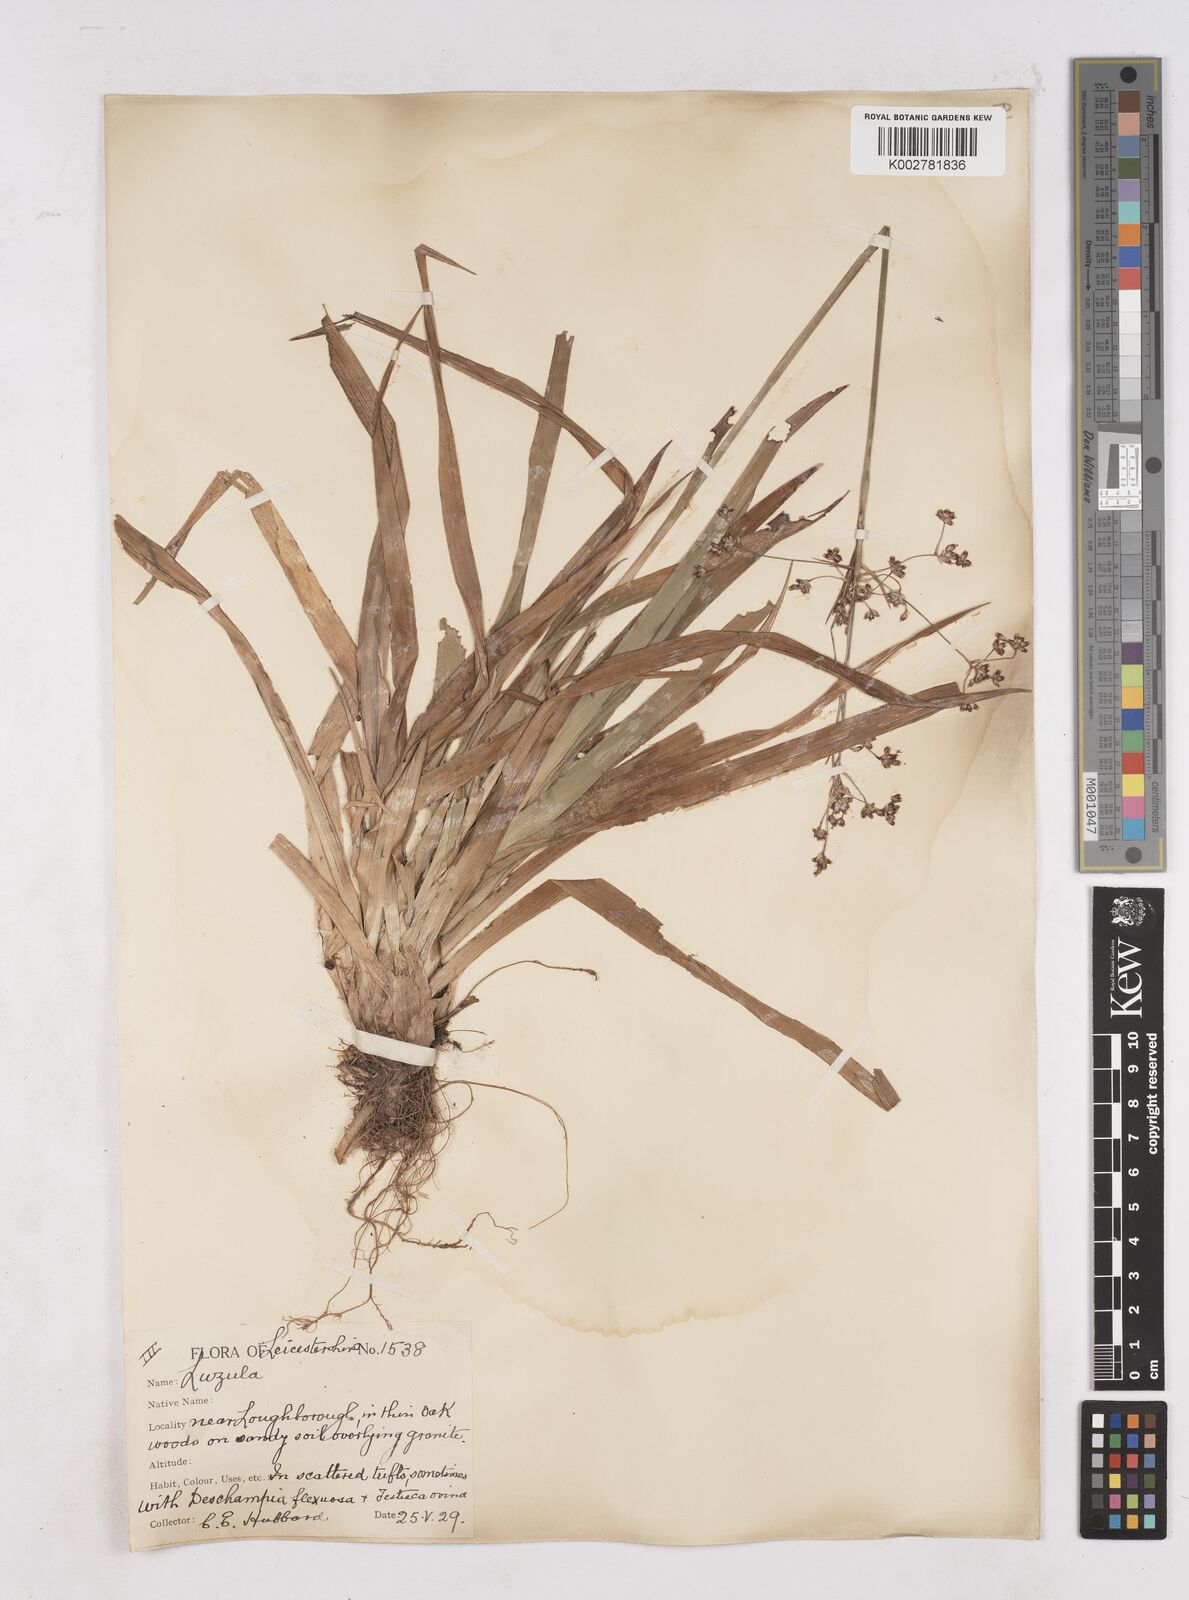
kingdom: Plantae
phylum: Tracheophyta
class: Liliopsida
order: Poales
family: Juncaceae
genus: Luzula
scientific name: Luzula sylvatica
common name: Great wood-rush
